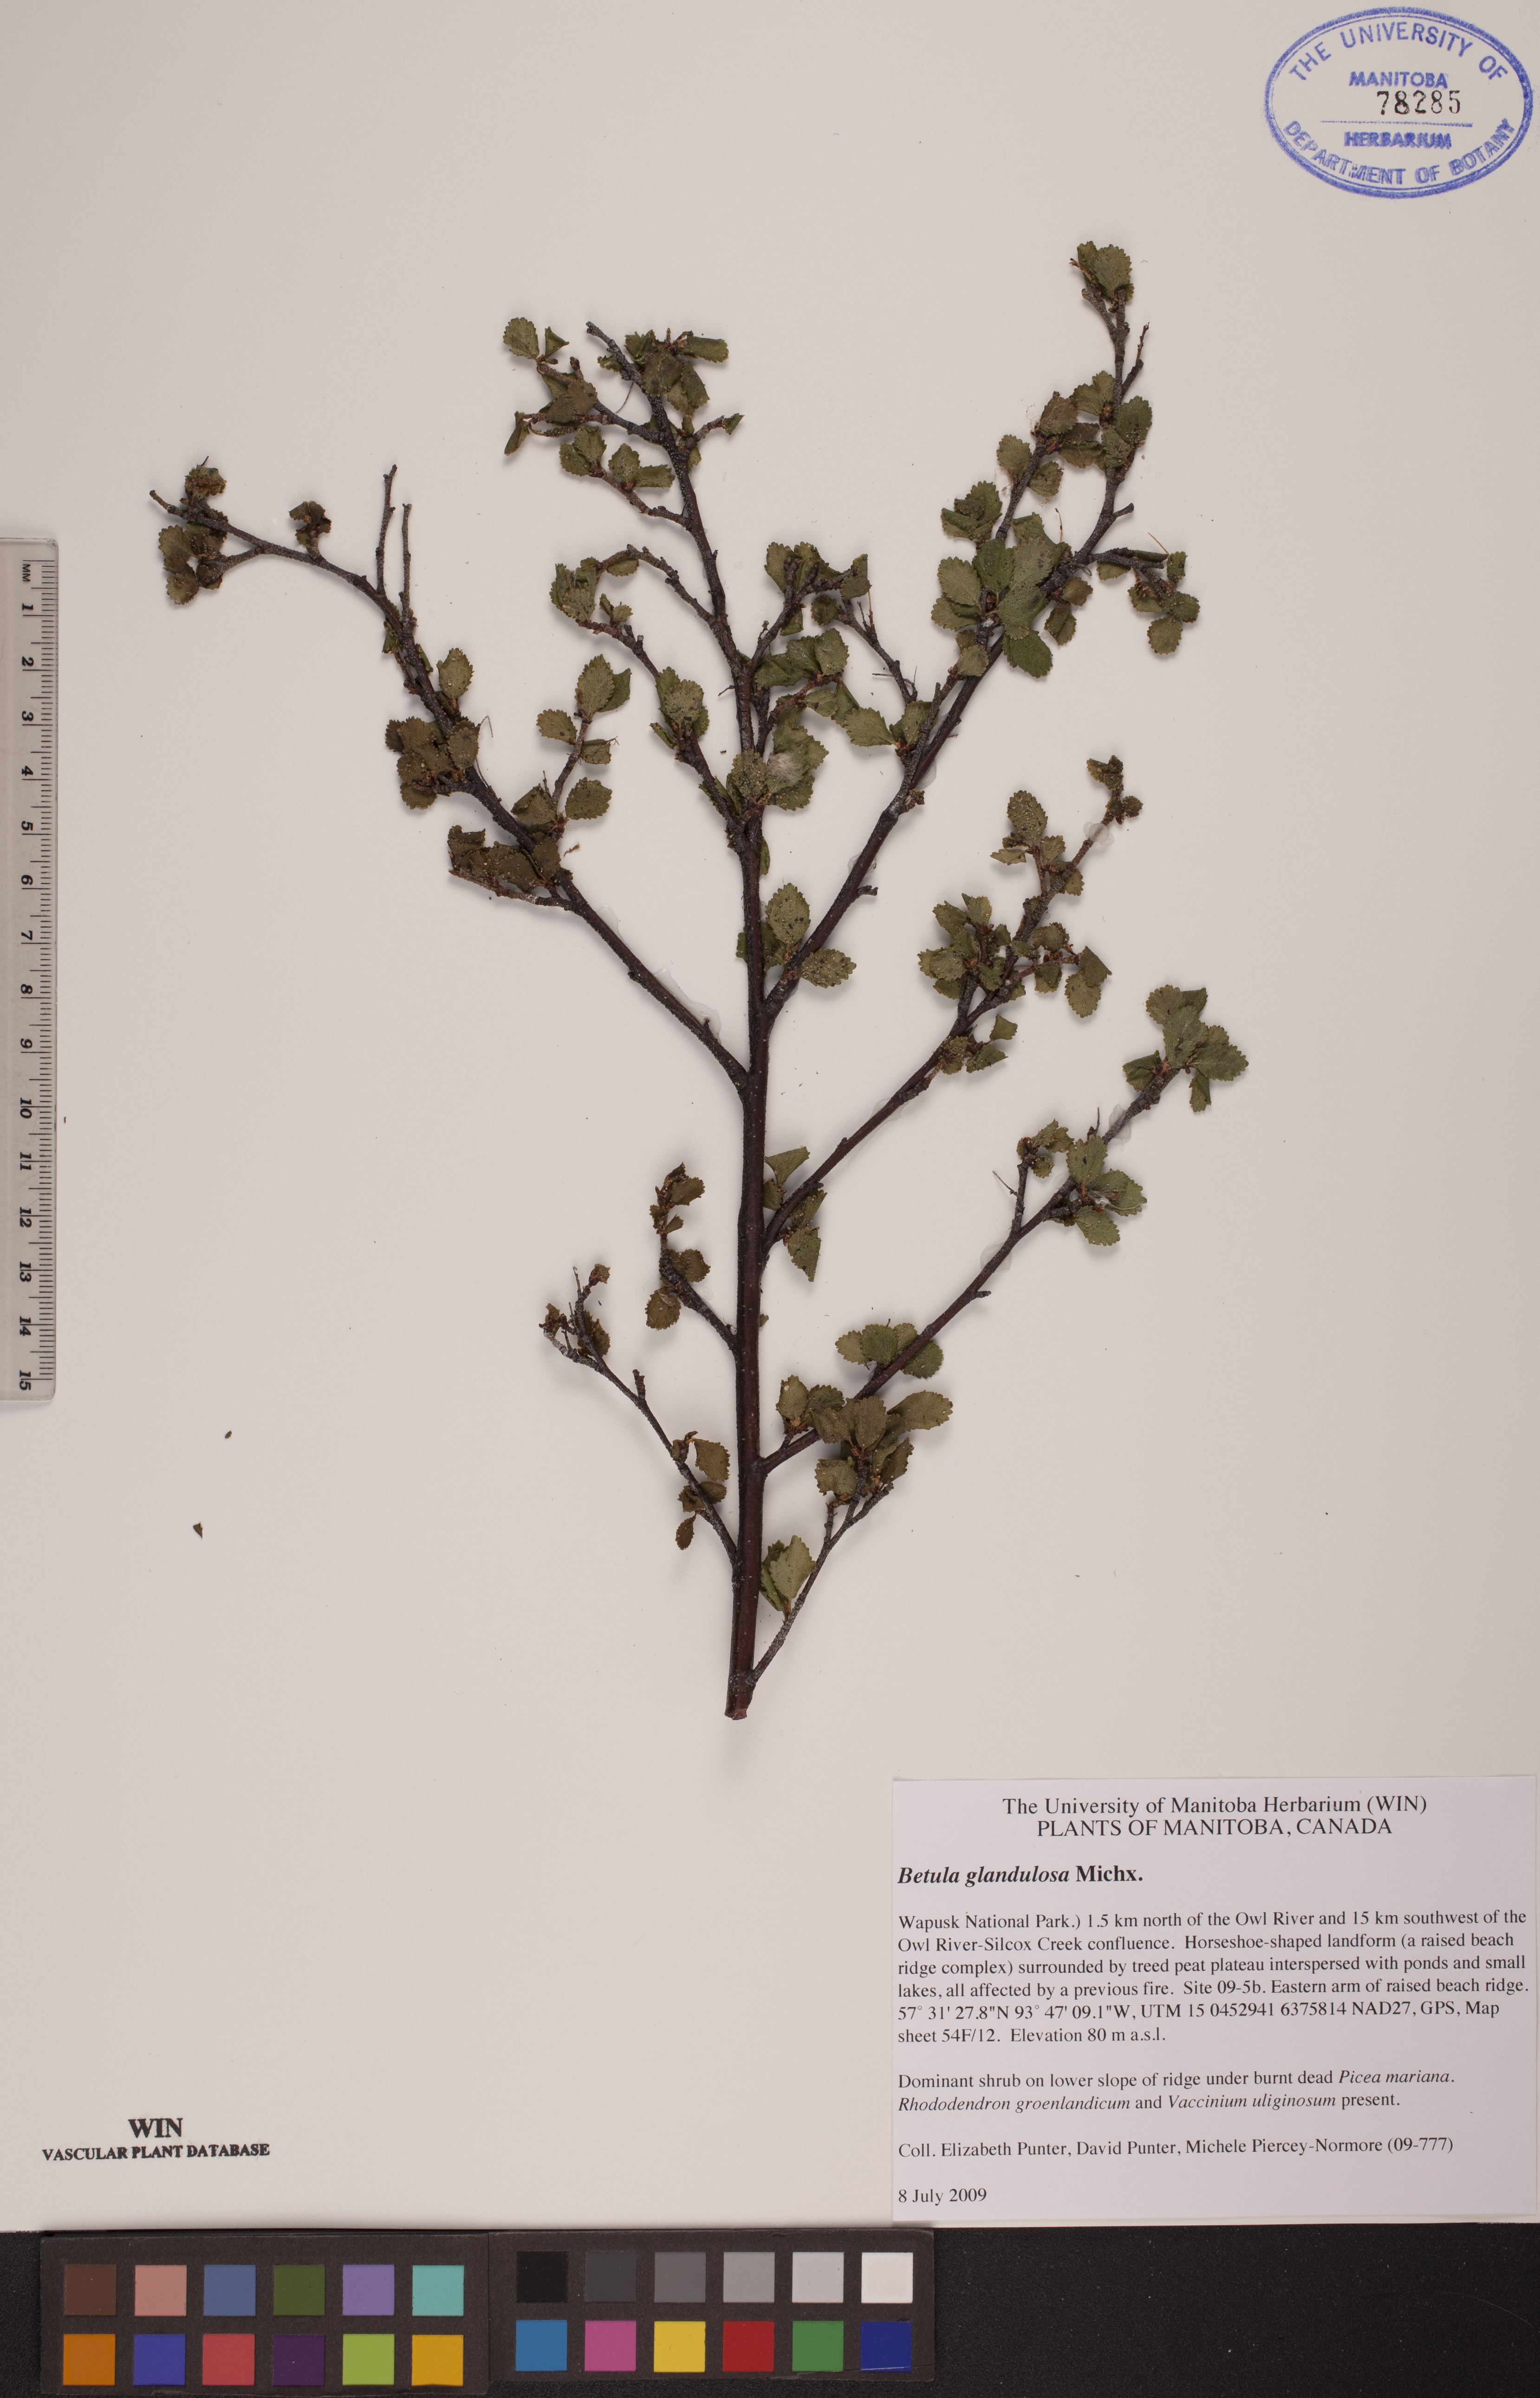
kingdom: Plantae
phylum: Tracheophyta
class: Magnoliopsida
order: Fagales
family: Betulaceae
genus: Betula
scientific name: Betula glandulosa
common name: Dwarf birch
